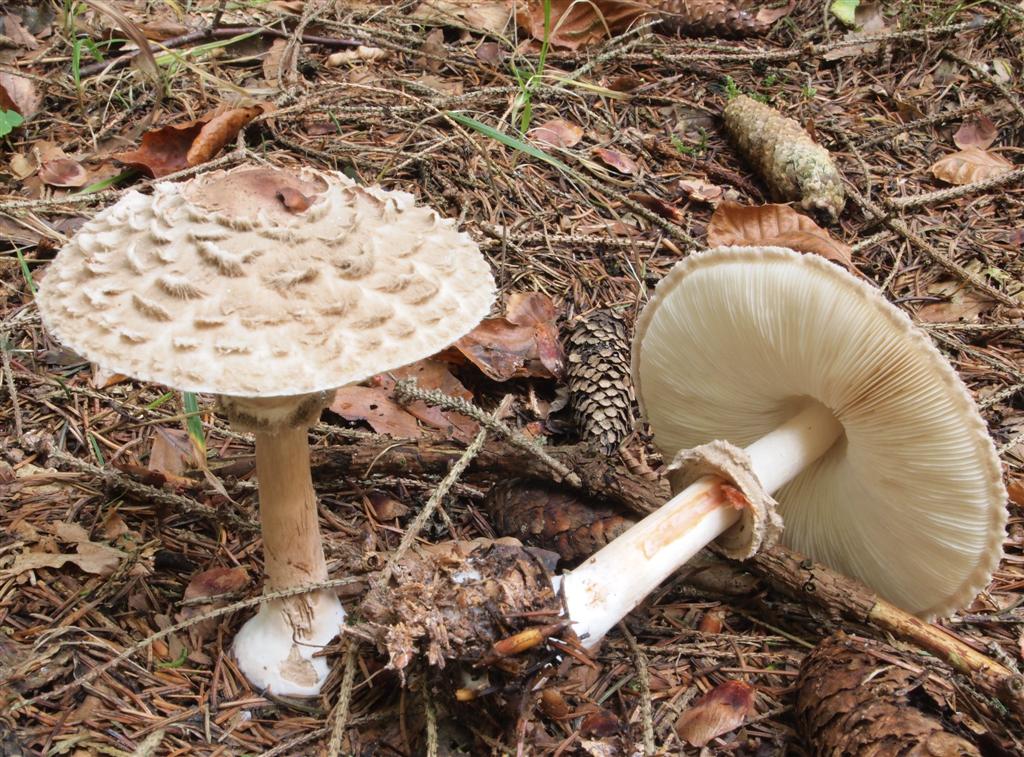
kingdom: Fungi
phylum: Basidiomycota
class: Agaricomycetes
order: Agaricales
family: Agaricaceae
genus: Chlorophyllum
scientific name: Chlorophyllum rhacodes
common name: ægte rabarberhat
